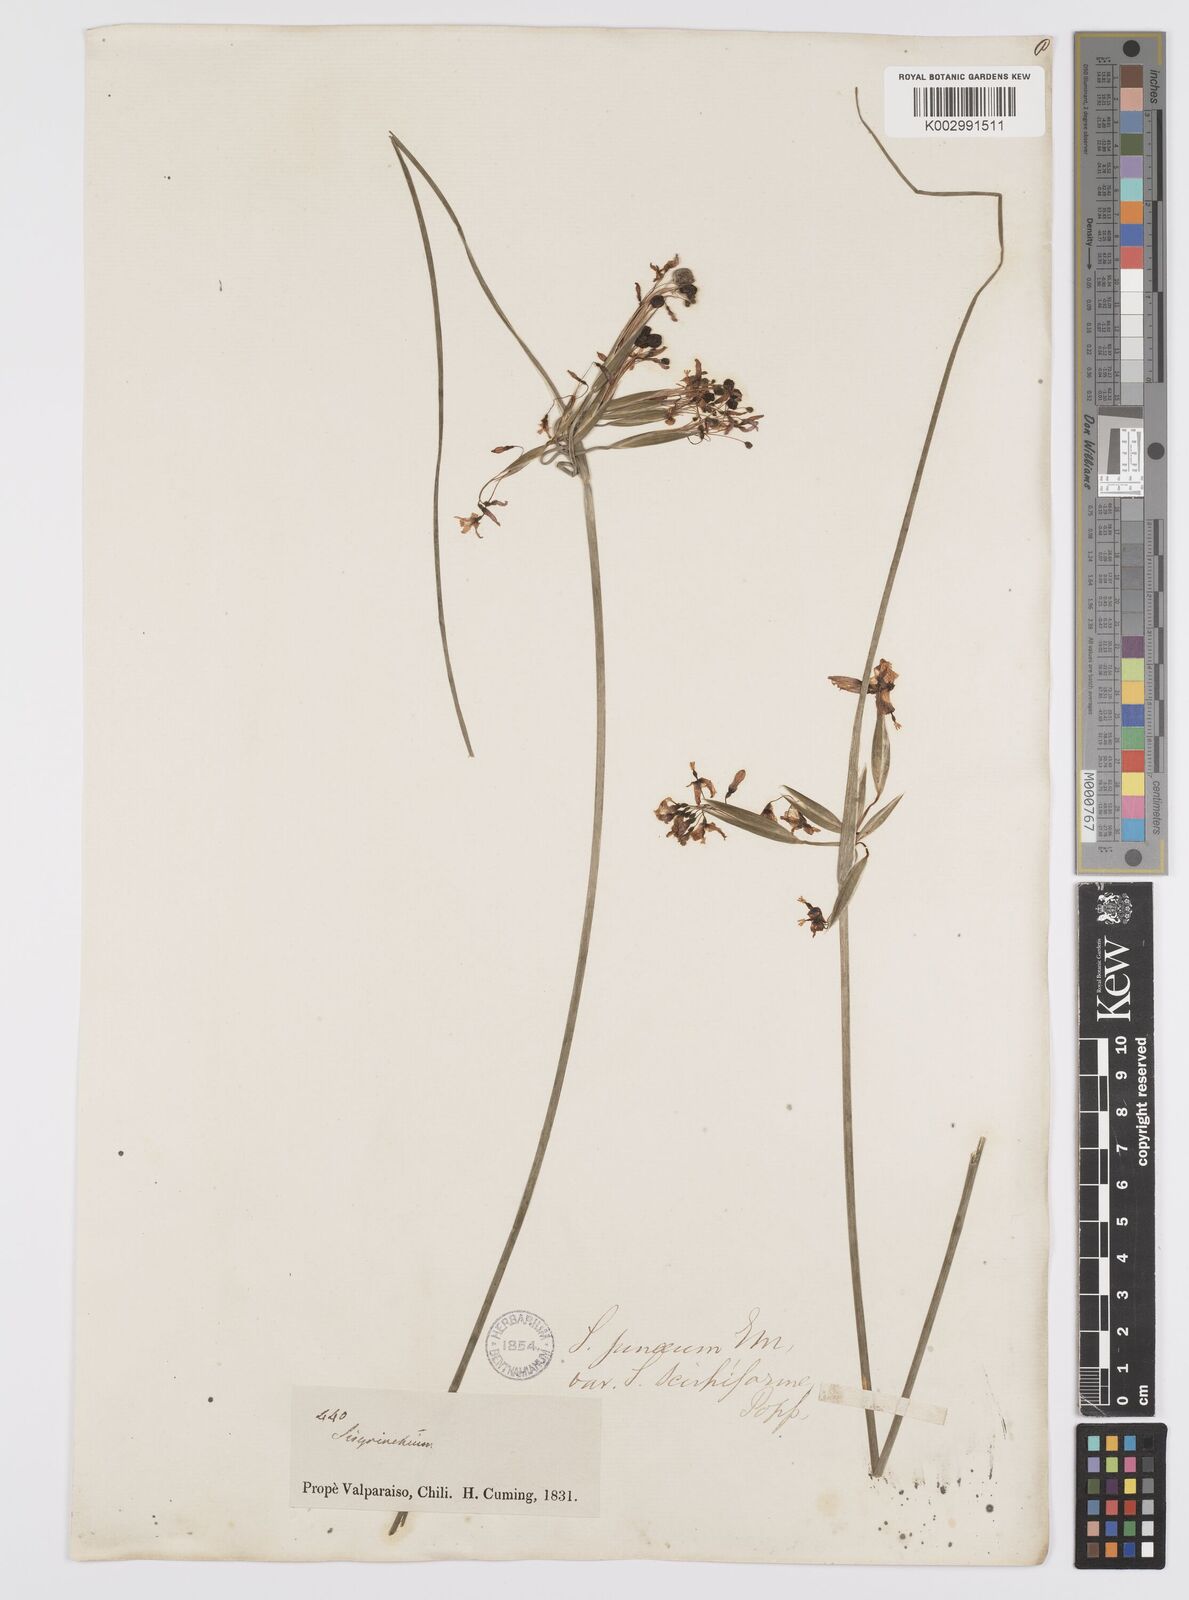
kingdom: Plantae
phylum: Tracheophyta
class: Liliopsida
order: Asparagales
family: Iridaceae
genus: Olsynium
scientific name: Olsynium junceum
